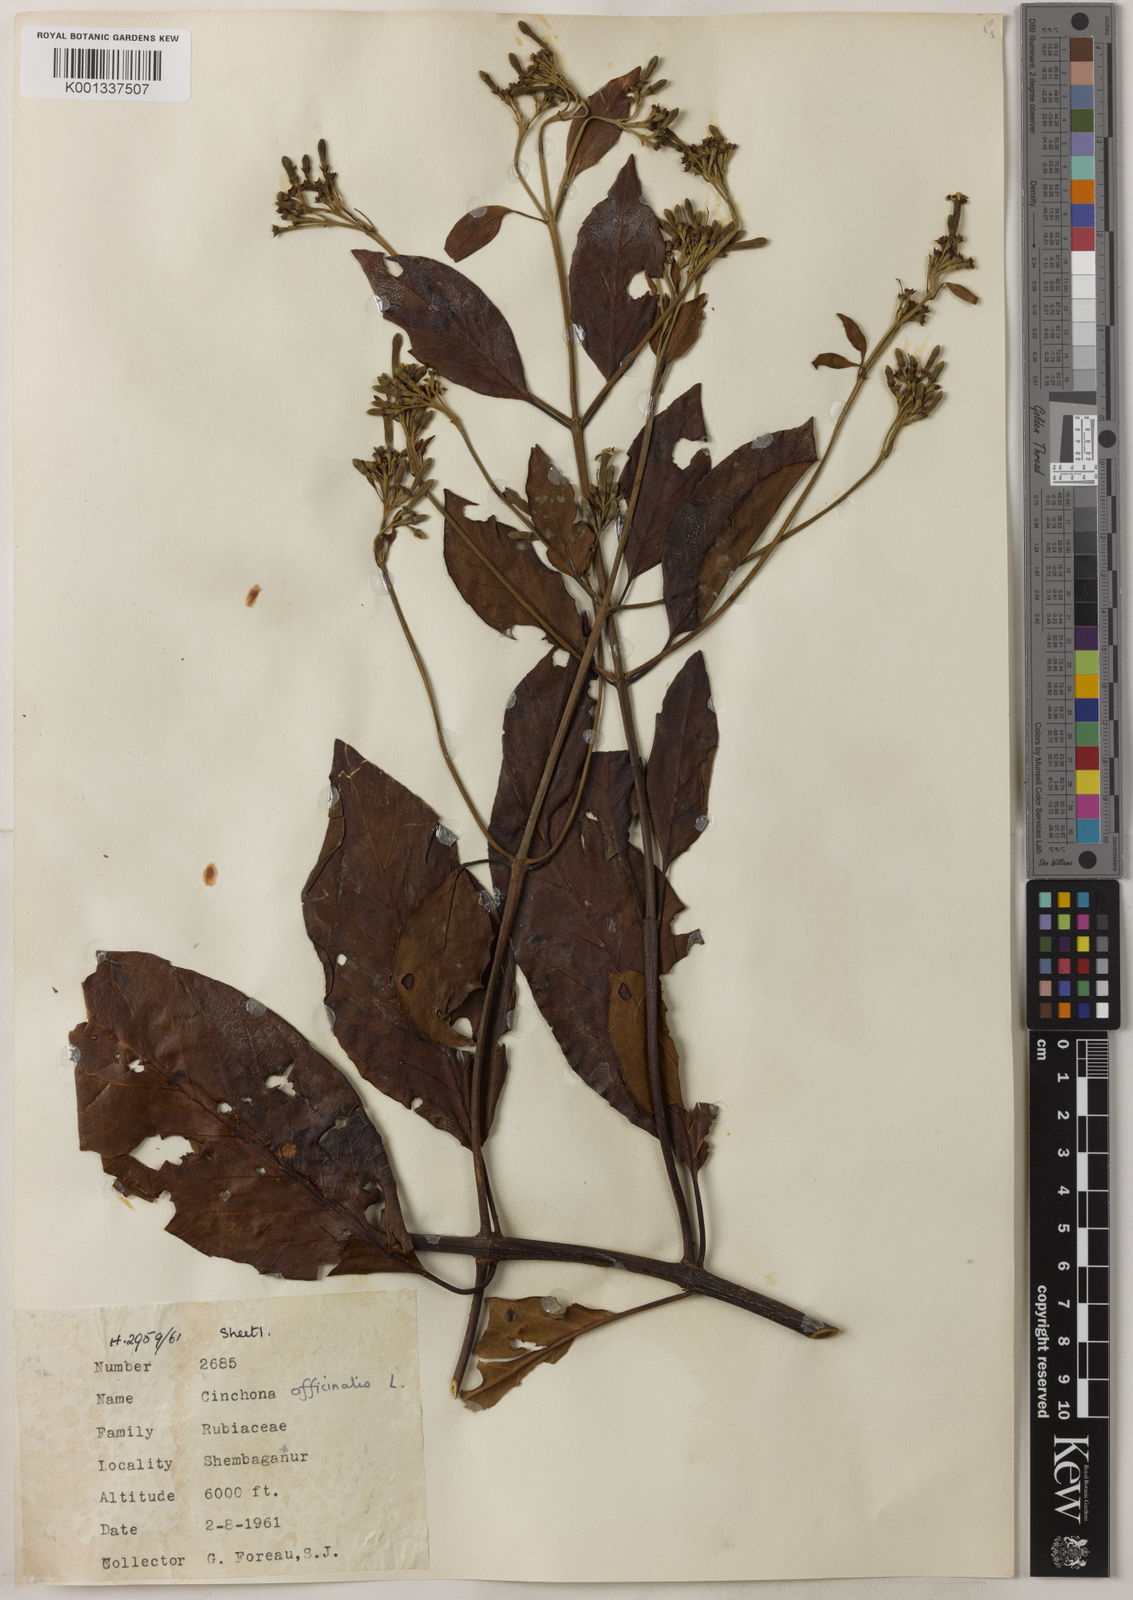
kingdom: Plantae
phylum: Tracheophyta
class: Magnoliopsida
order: Gentianales
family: Rubiaceae
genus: Cinchona
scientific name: Cinchona officinalis
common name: Lojabark
